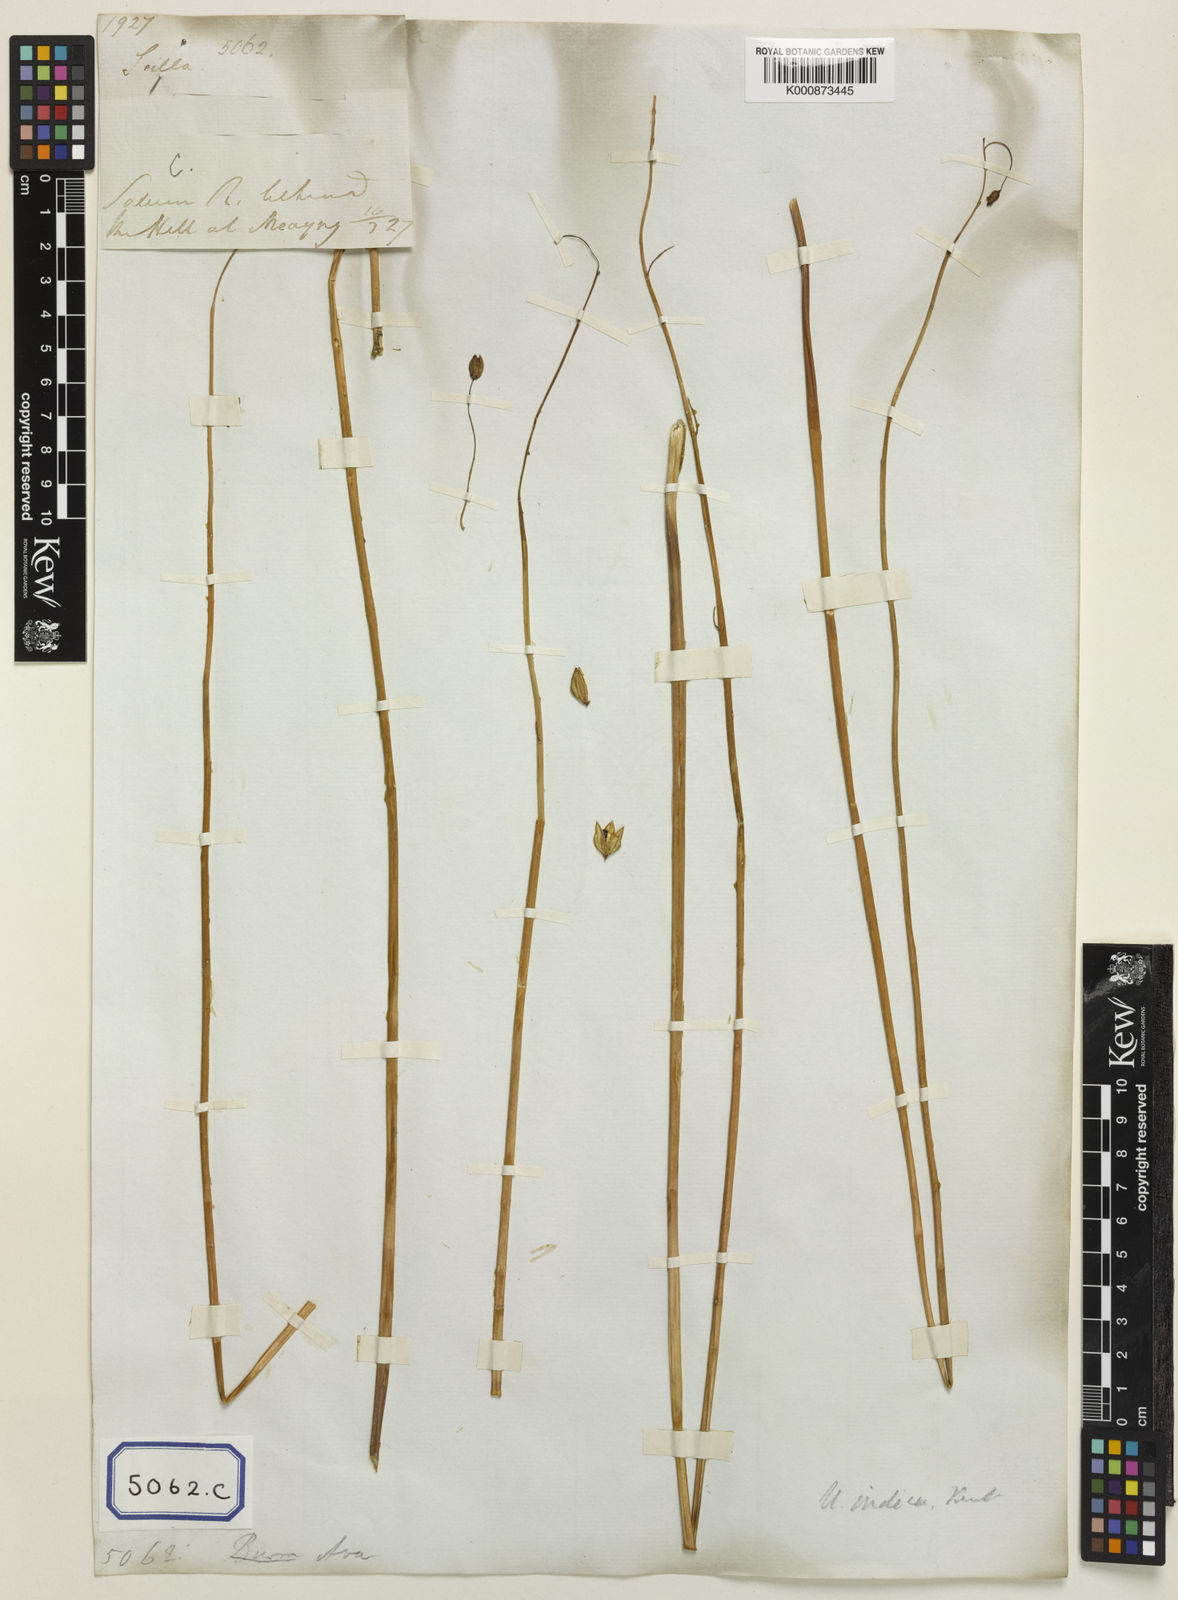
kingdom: Plantae
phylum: Tracheophyta
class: Liliopsida
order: Asparagales
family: Asparagaceae
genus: Drimia
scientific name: Drimia indica
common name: Indian-squill
